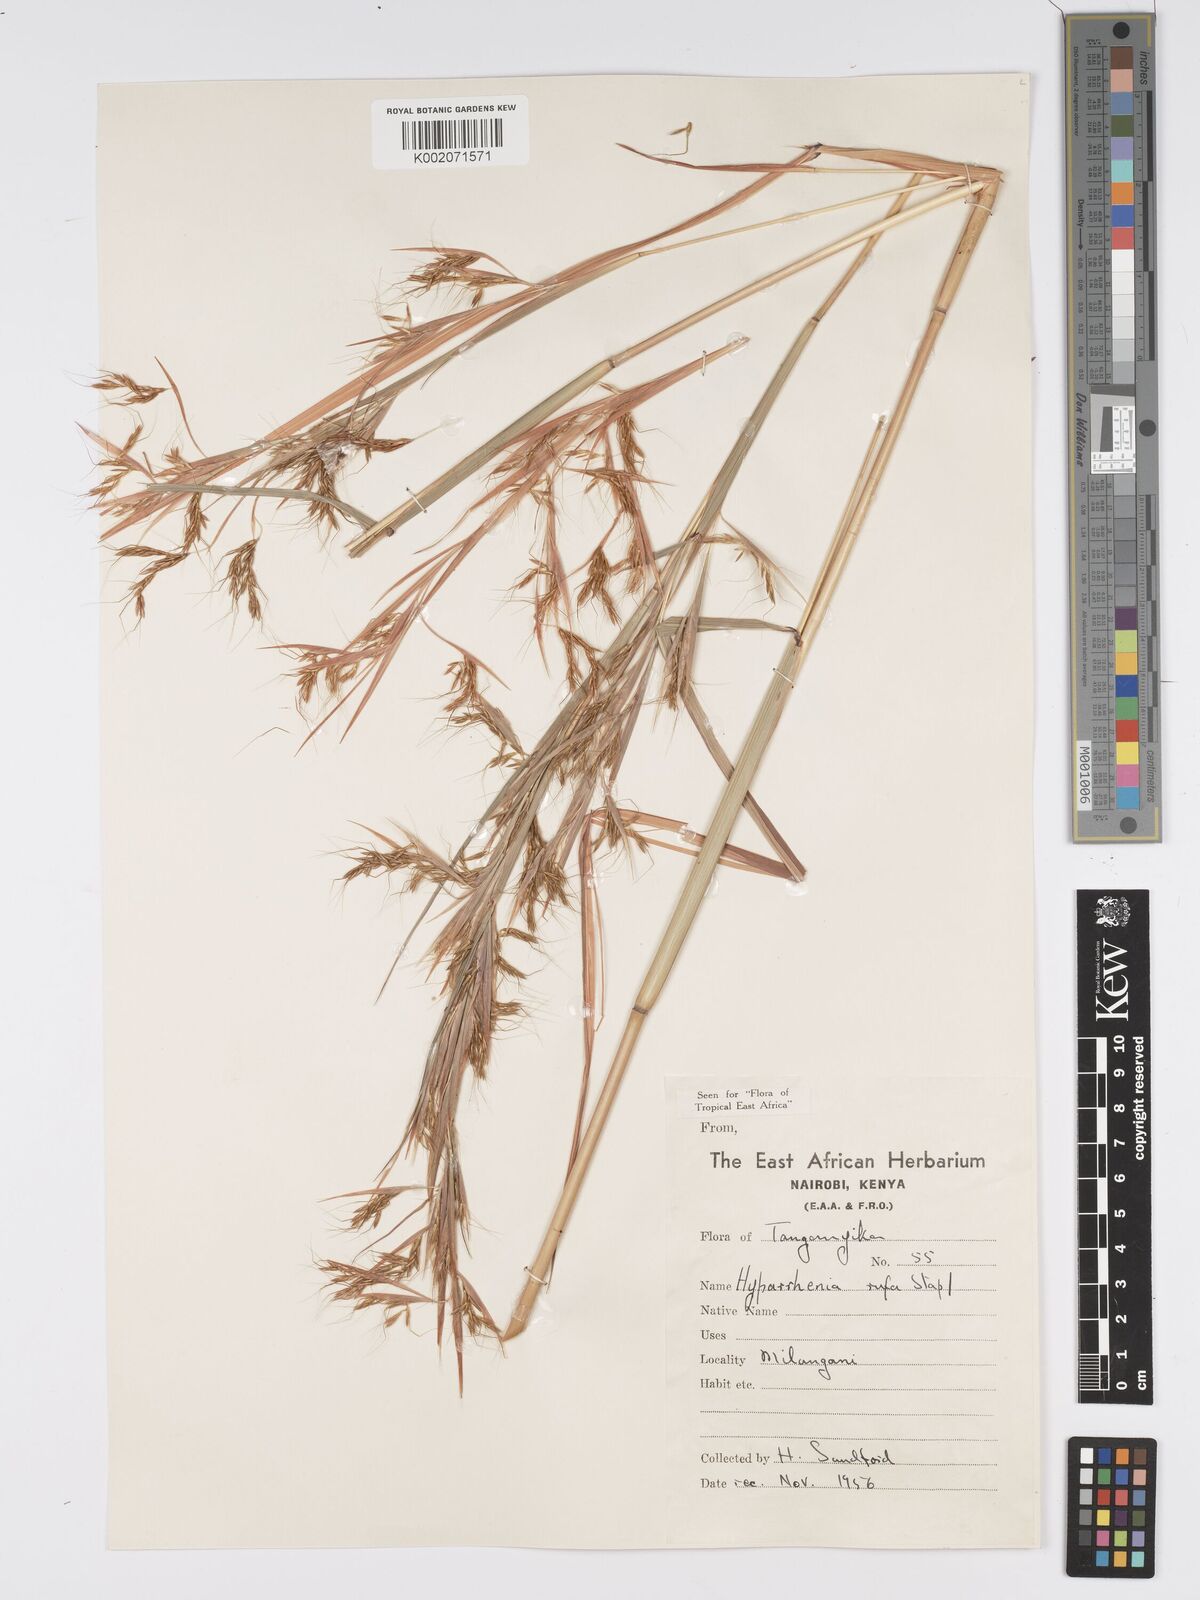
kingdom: Plantae
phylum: Tracheophyta
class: Liliopsida
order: Poales
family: Poaceae
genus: Hyparrhenia
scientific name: Hyparrhenia rufa
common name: Jaraguagrass
